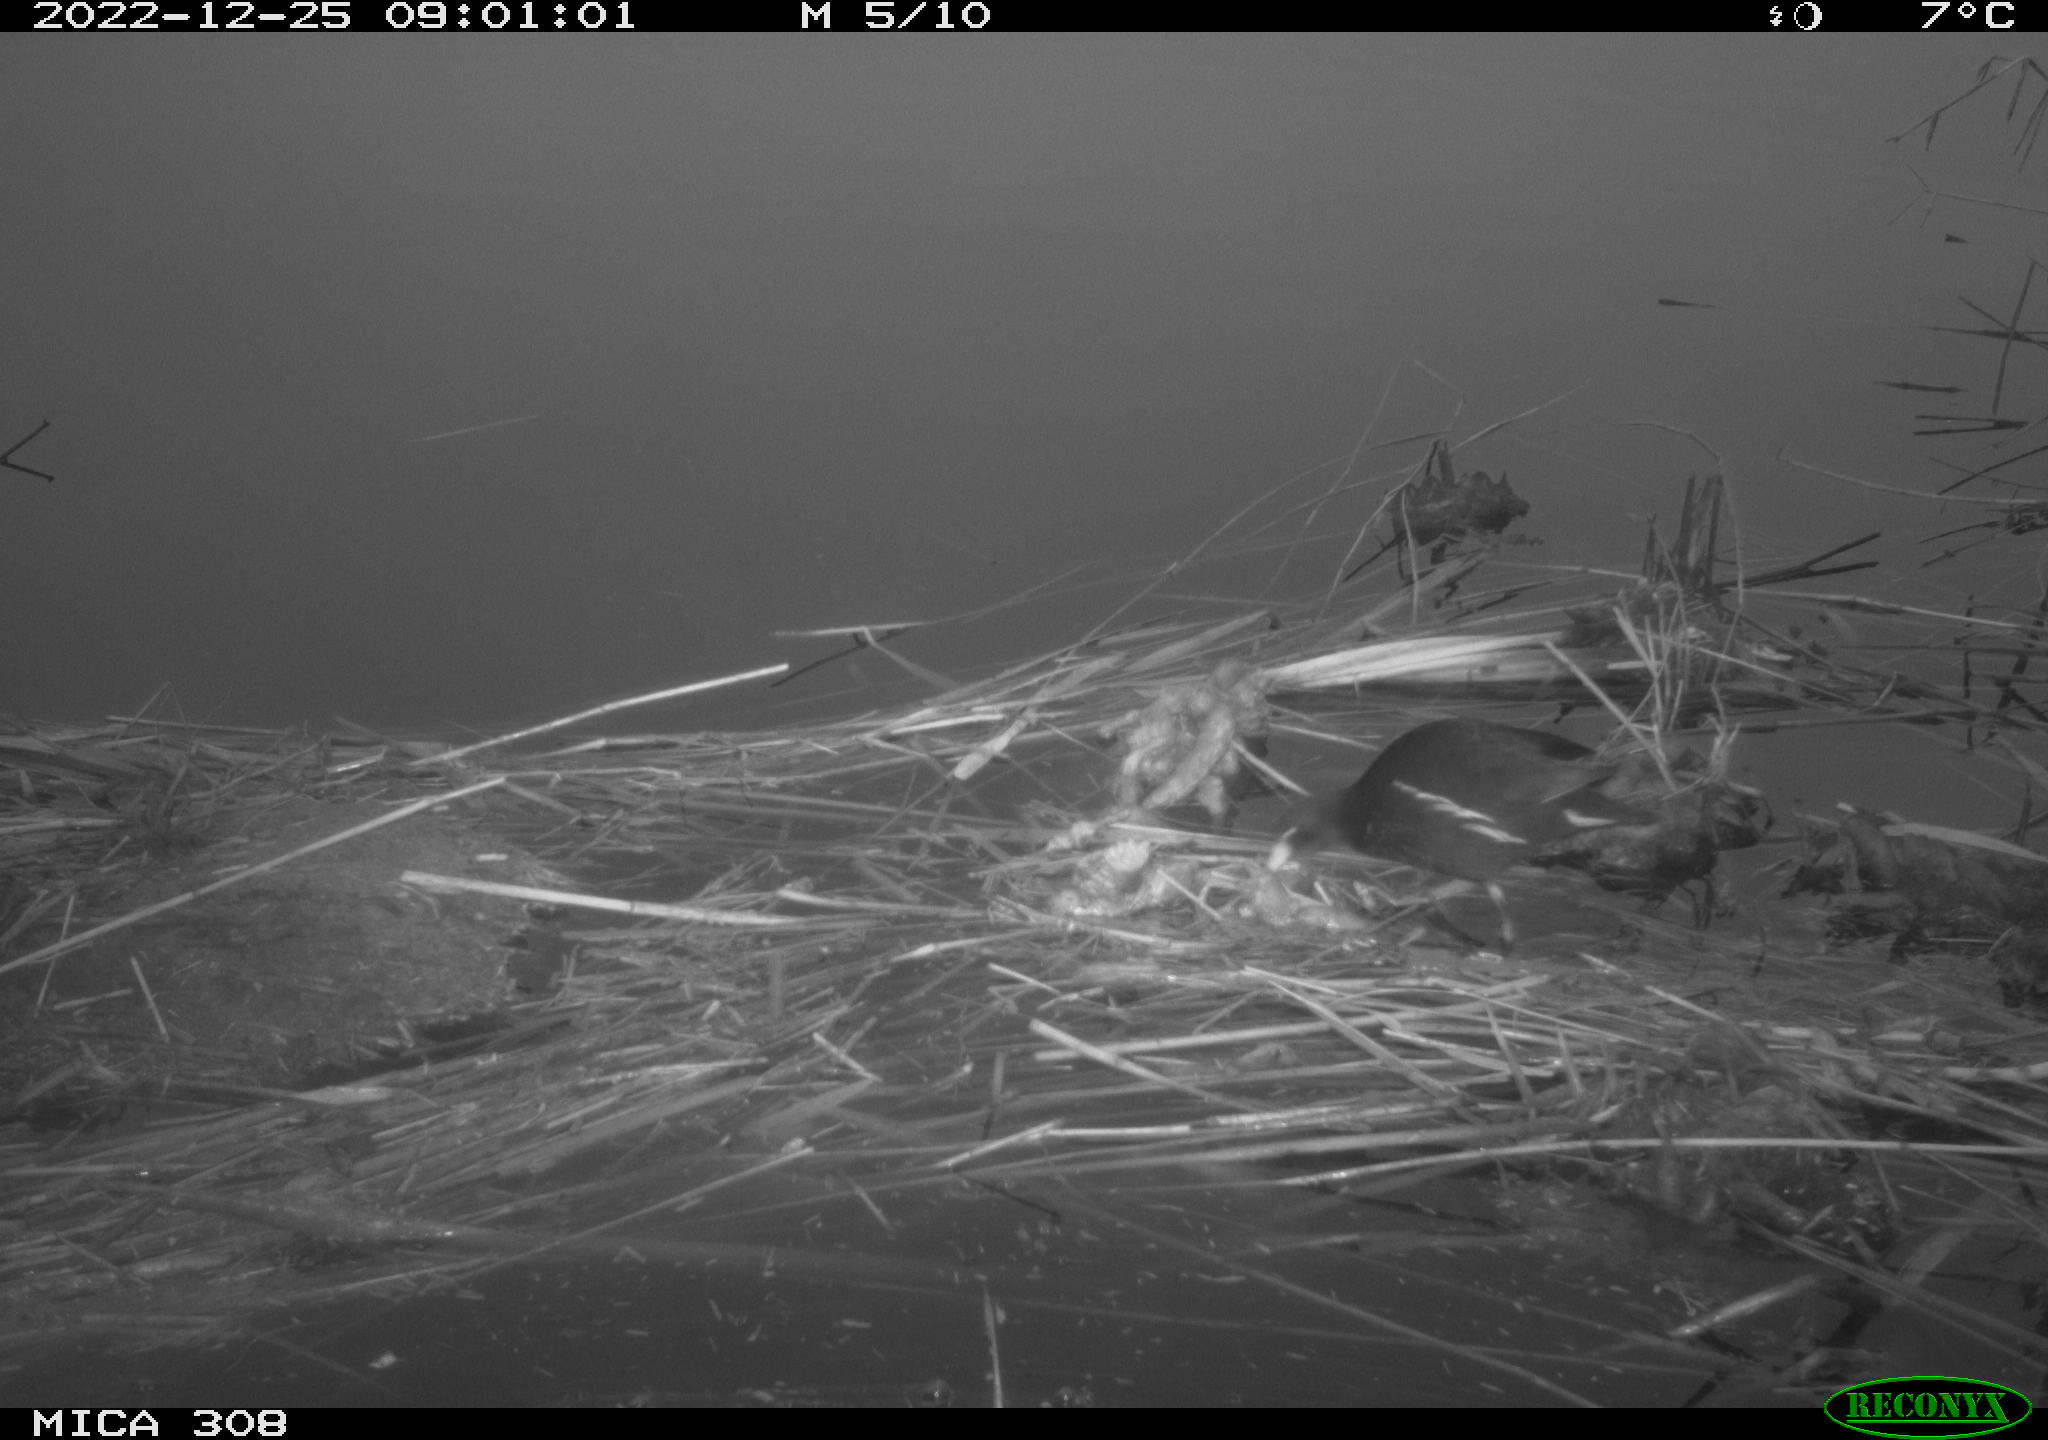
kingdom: Animalia
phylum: Chordata
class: Aves
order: Gruiformes
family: Rallidae
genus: Gallinula
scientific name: Gallinula chloropus
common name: Common moorhen
